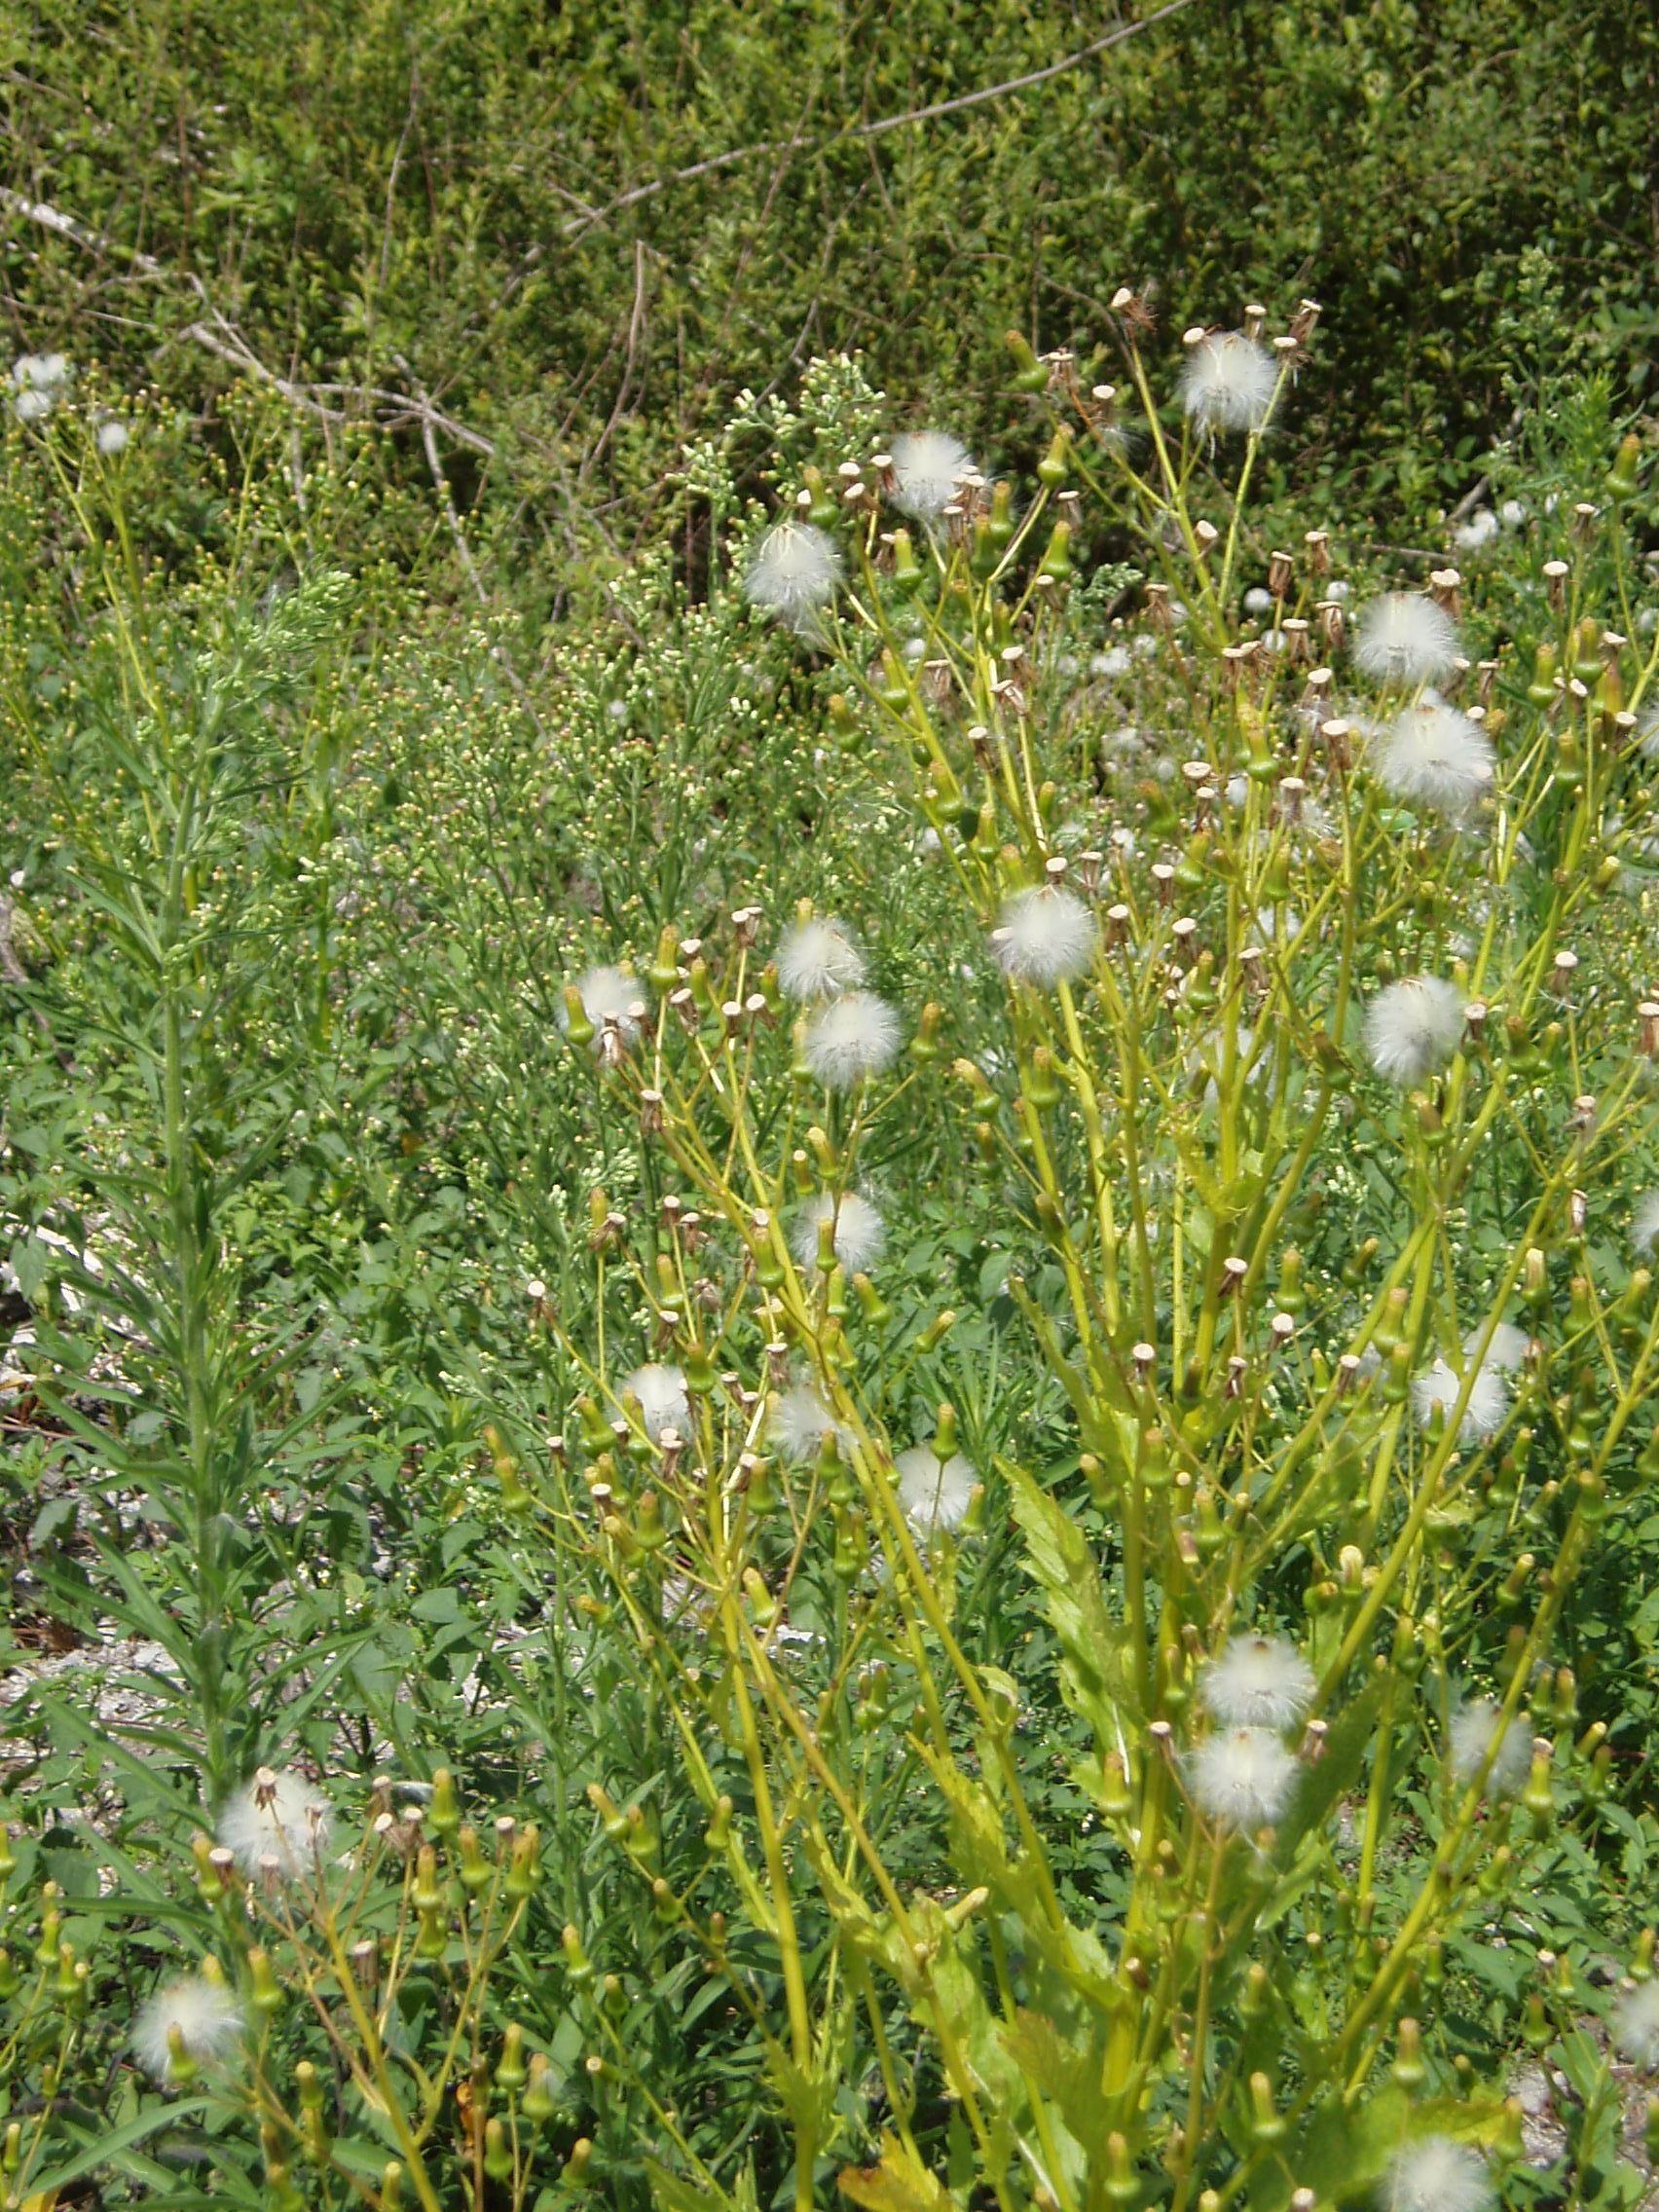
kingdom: Plantae
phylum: Tracheophyta
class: Magnoliopsida
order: Asterales
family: Asteraceae
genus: Erechtites
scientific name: Erechtites hieraciifolius
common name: American burnweed
